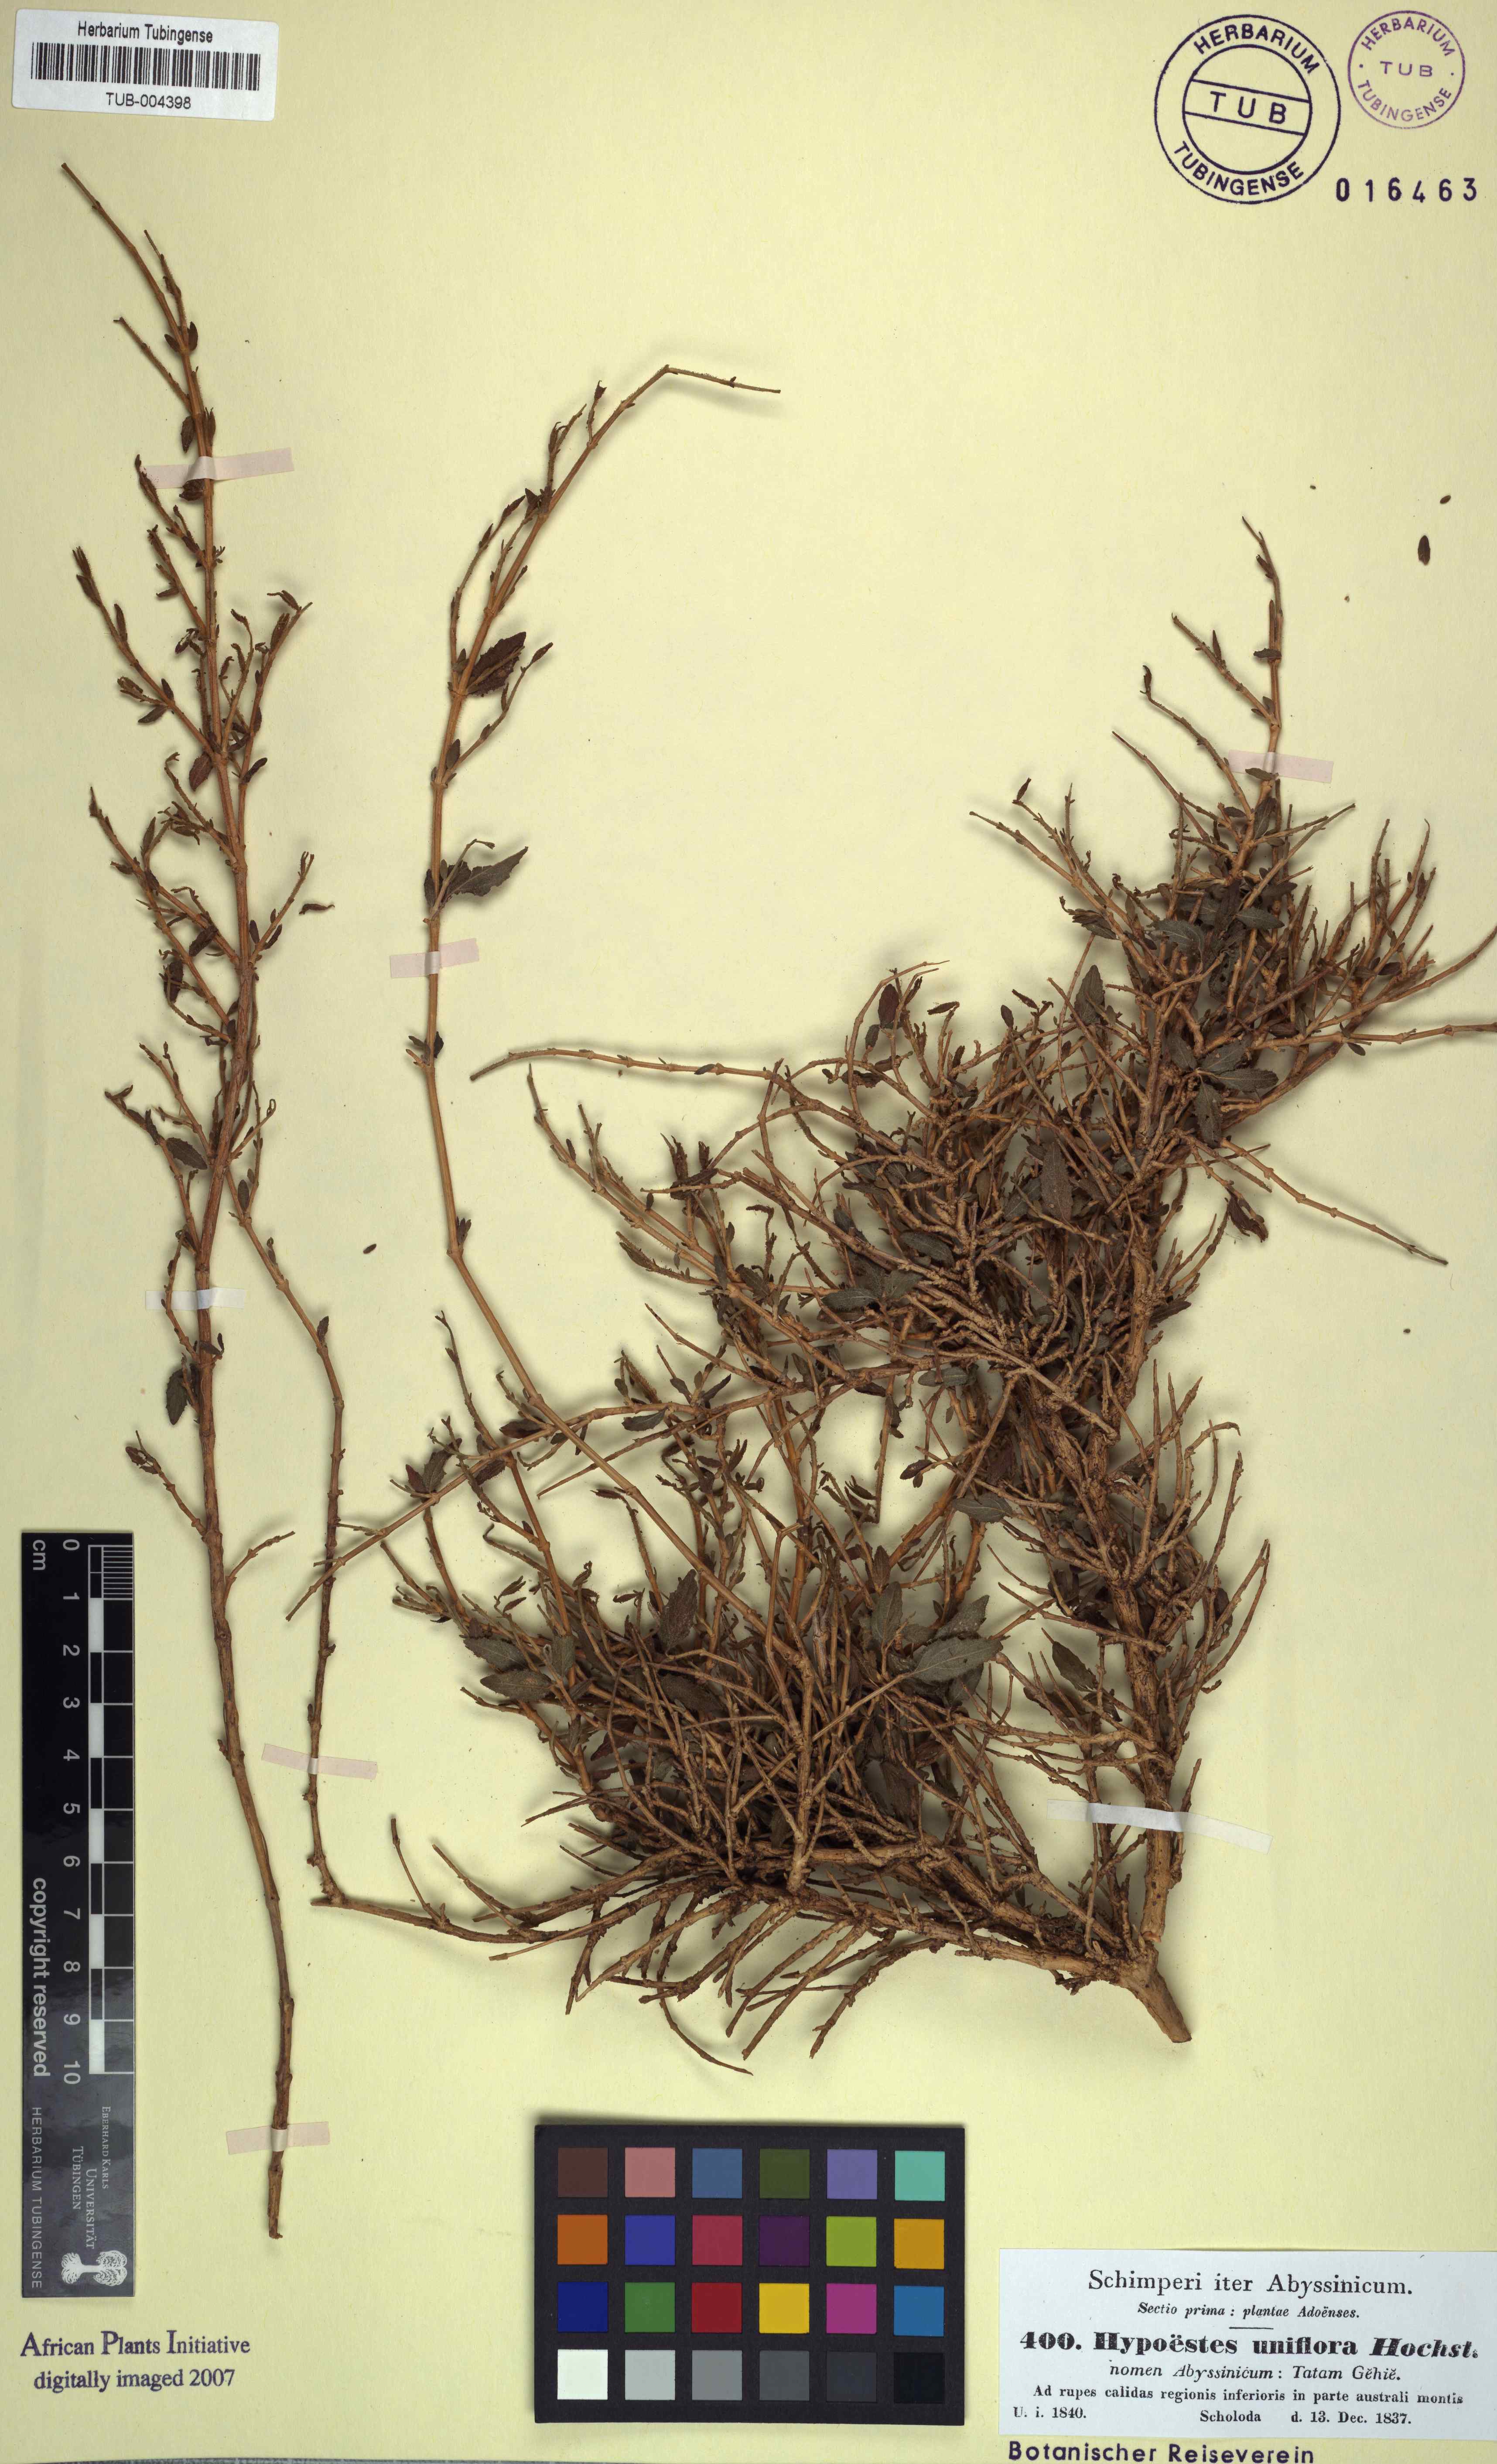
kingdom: Plantae
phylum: Tracheophyta
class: Magnoliopsida
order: Lamiales
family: Acanthaceae
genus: Hypoestes
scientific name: Hypoestes triflora
